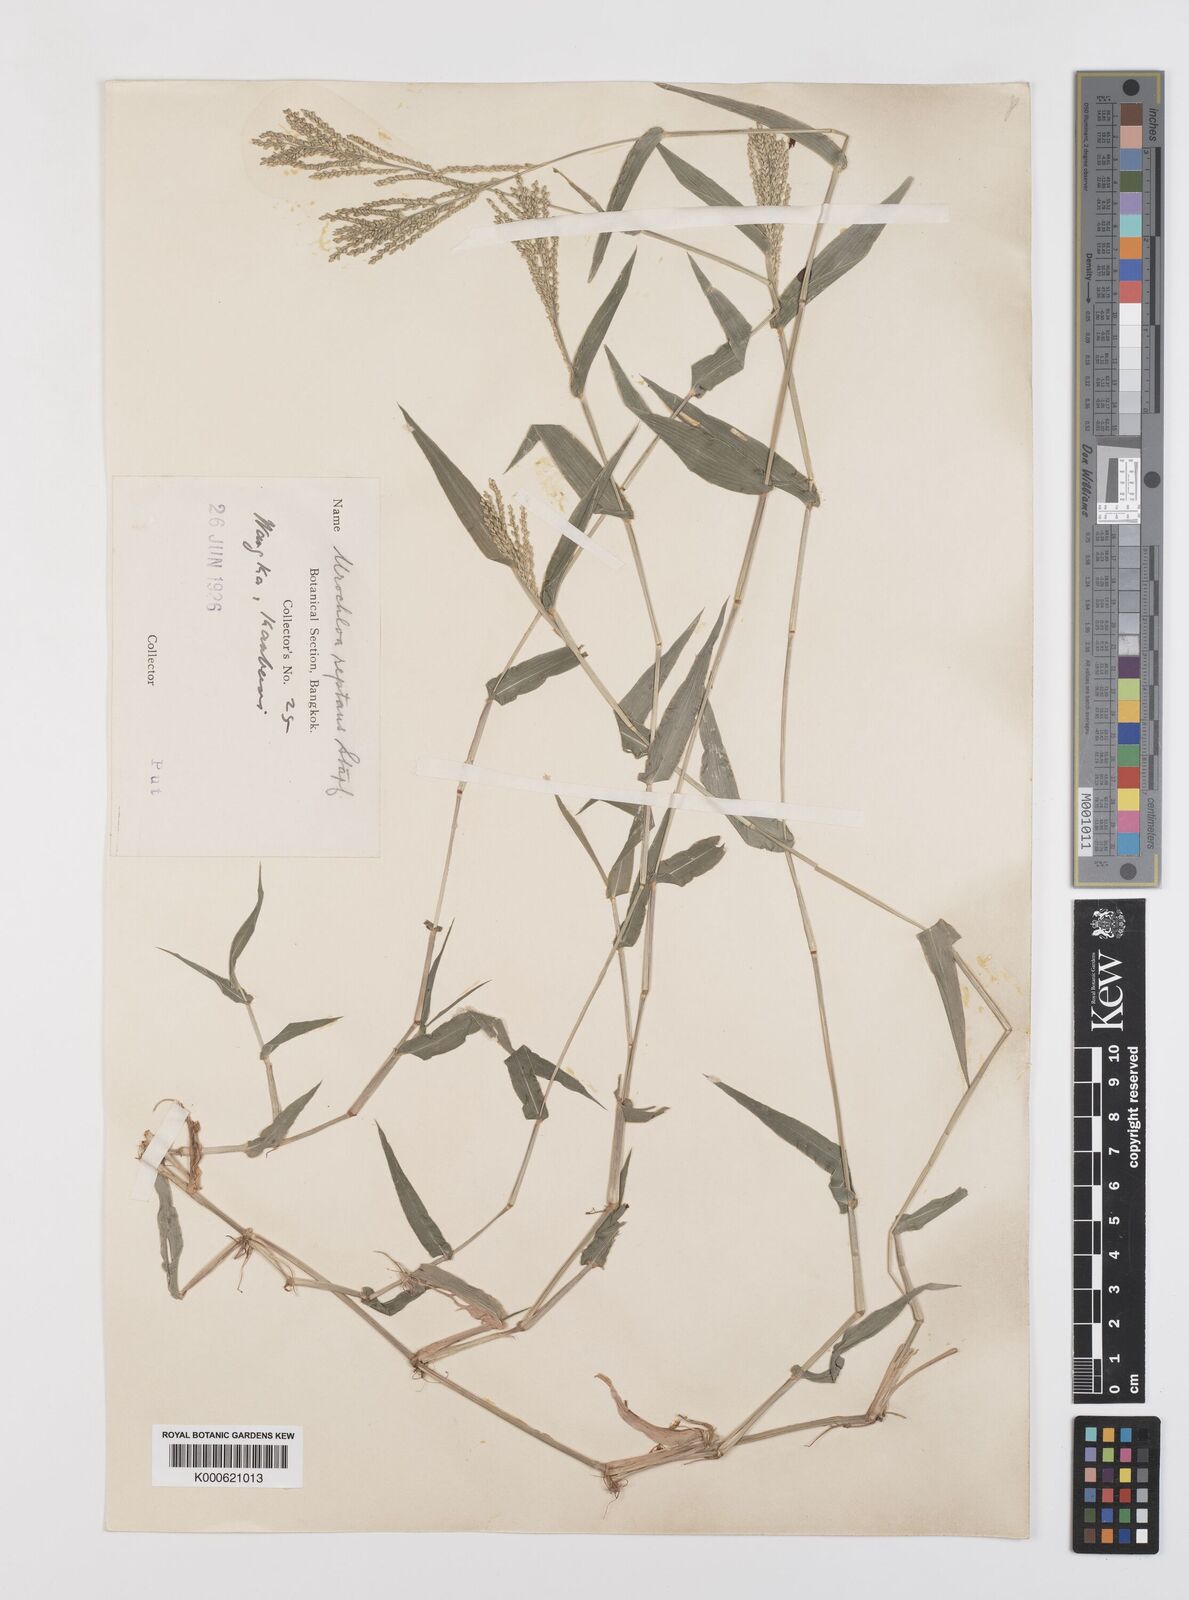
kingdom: Plantae
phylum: Tracheophyta
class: Liliopsida
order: Poales
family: Poaceae
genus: Urochloa
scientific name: Urochloa reptans
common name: Sprawling signalgrass
